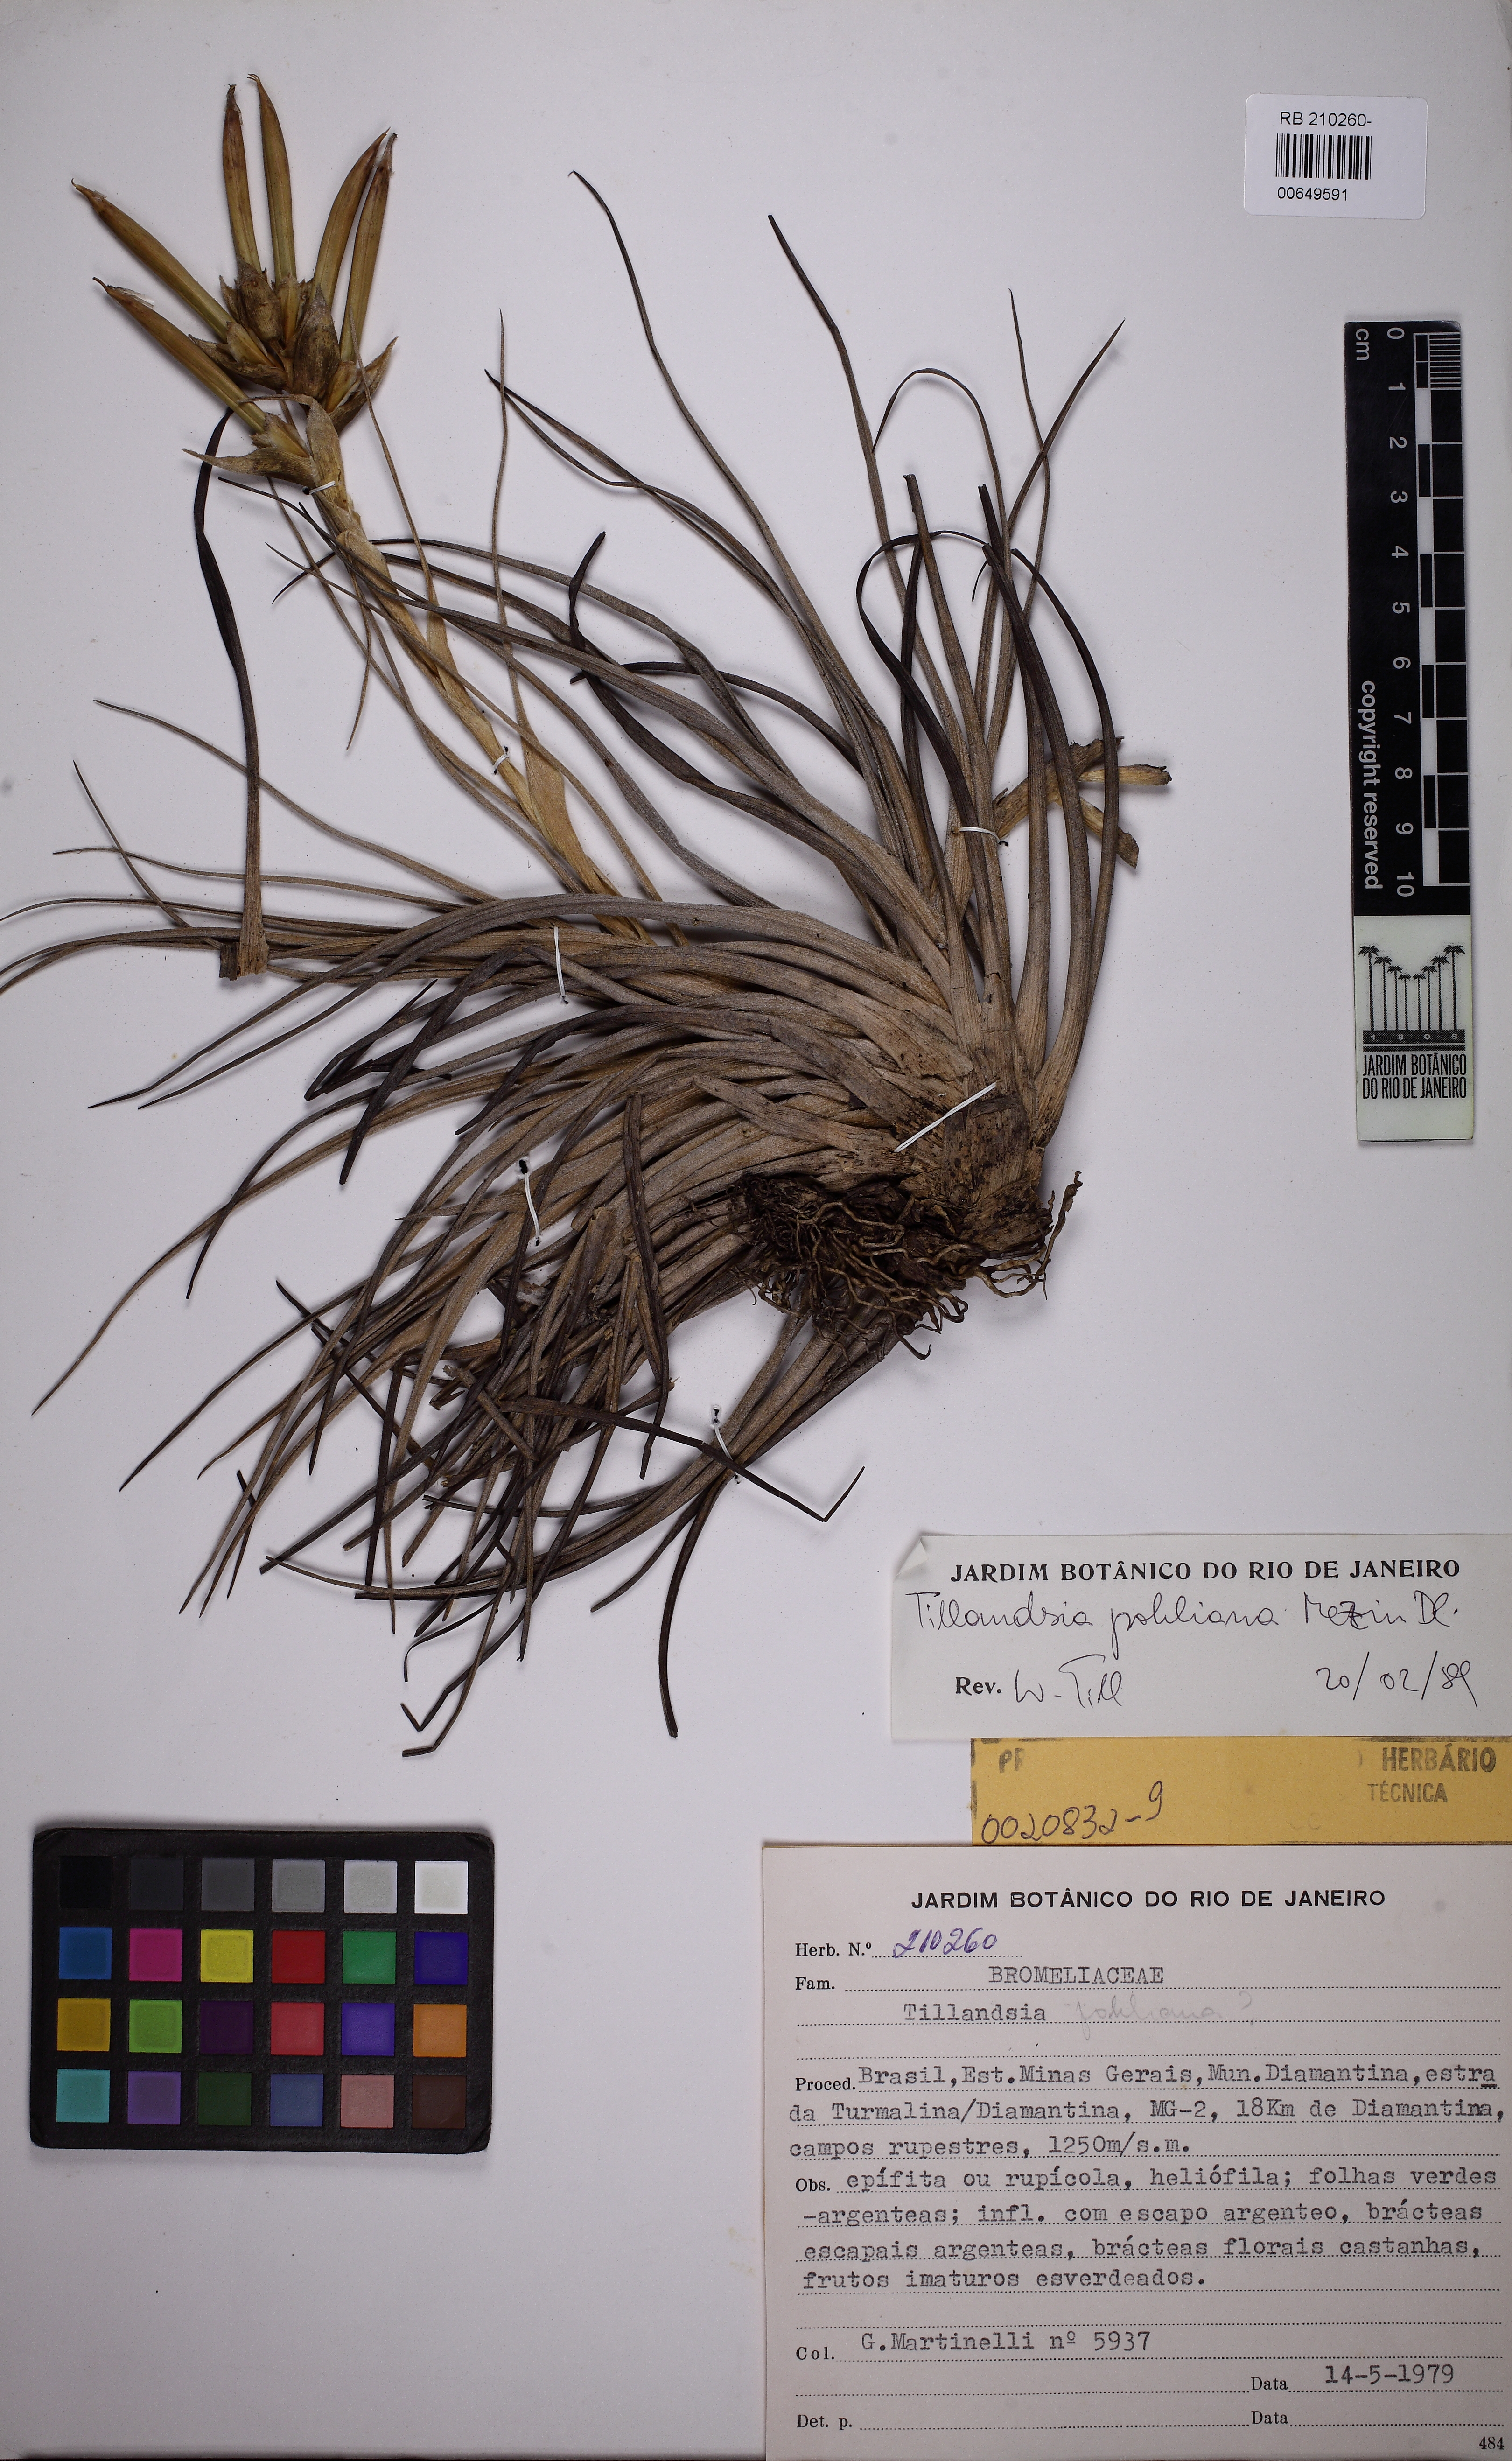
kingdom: Plantae
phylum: Tracheophyta
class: Liliopsida
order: Poales
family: Bromeliaceae
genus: Tillandsia
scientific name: Tillandsia pohliana
